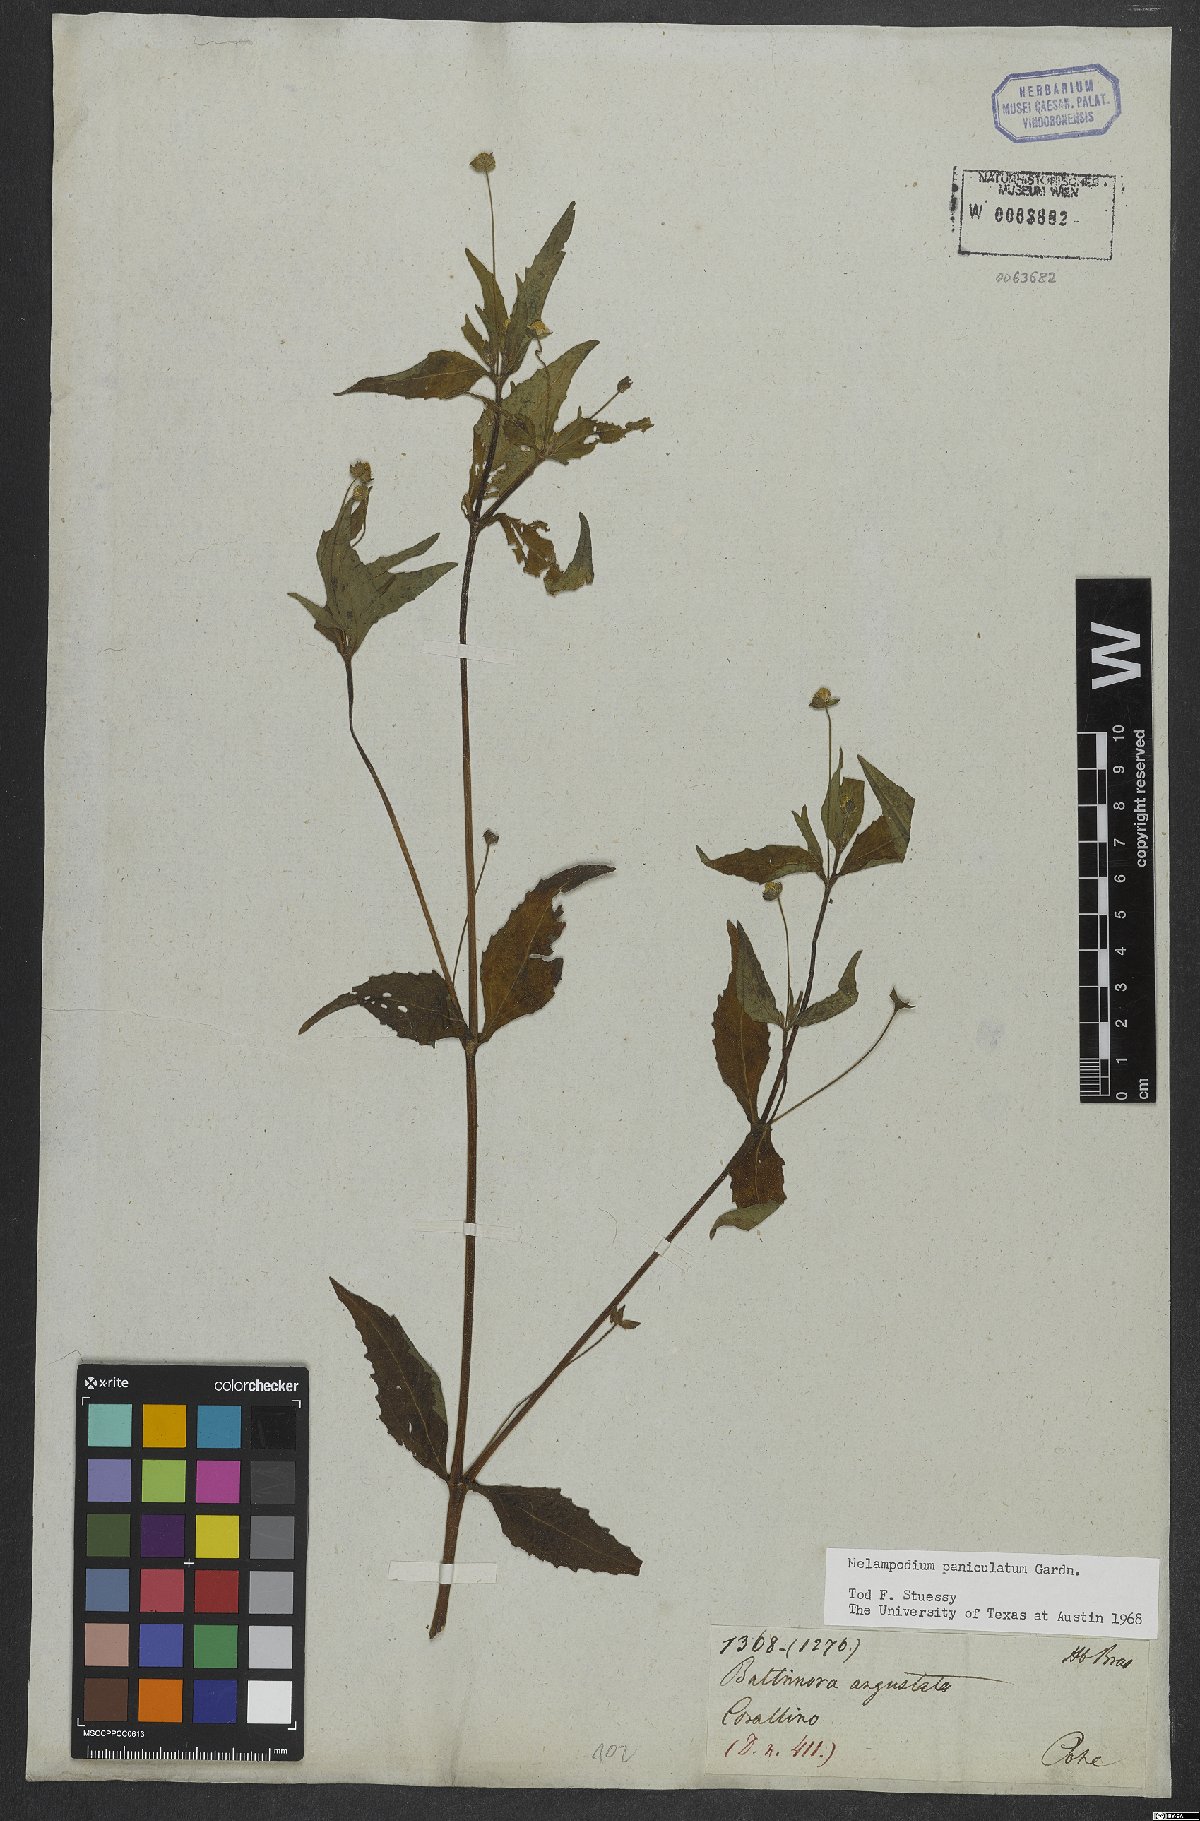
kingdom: Plantae
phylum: Tracheophyta
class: Magnoliopsida
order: Asterales
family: Asteraceae
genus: Melampodium
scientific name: Melampodium paniculatum
